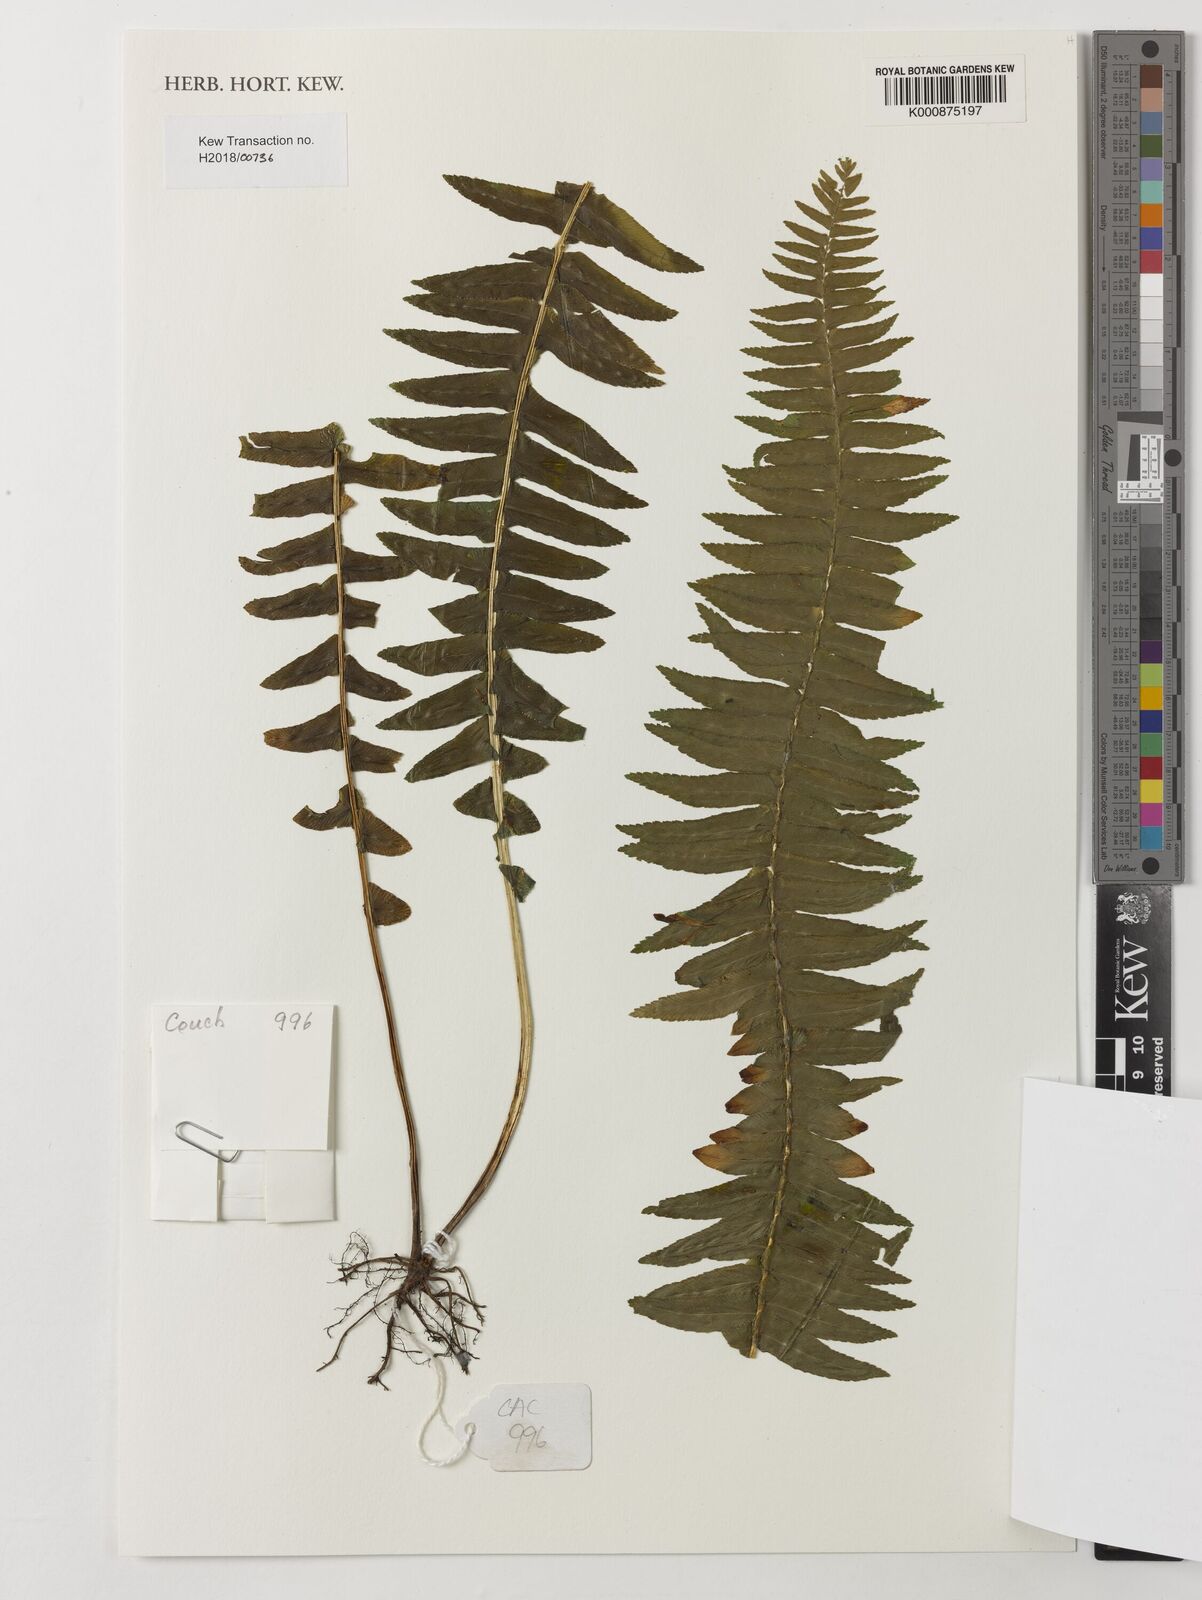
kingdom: Plantae
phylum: Tracheophyta
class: Polypodiopsida
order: Polypodiales
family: Nephrolepidaceae
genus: Nephrolepis
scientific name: Nephrolepis undulata
